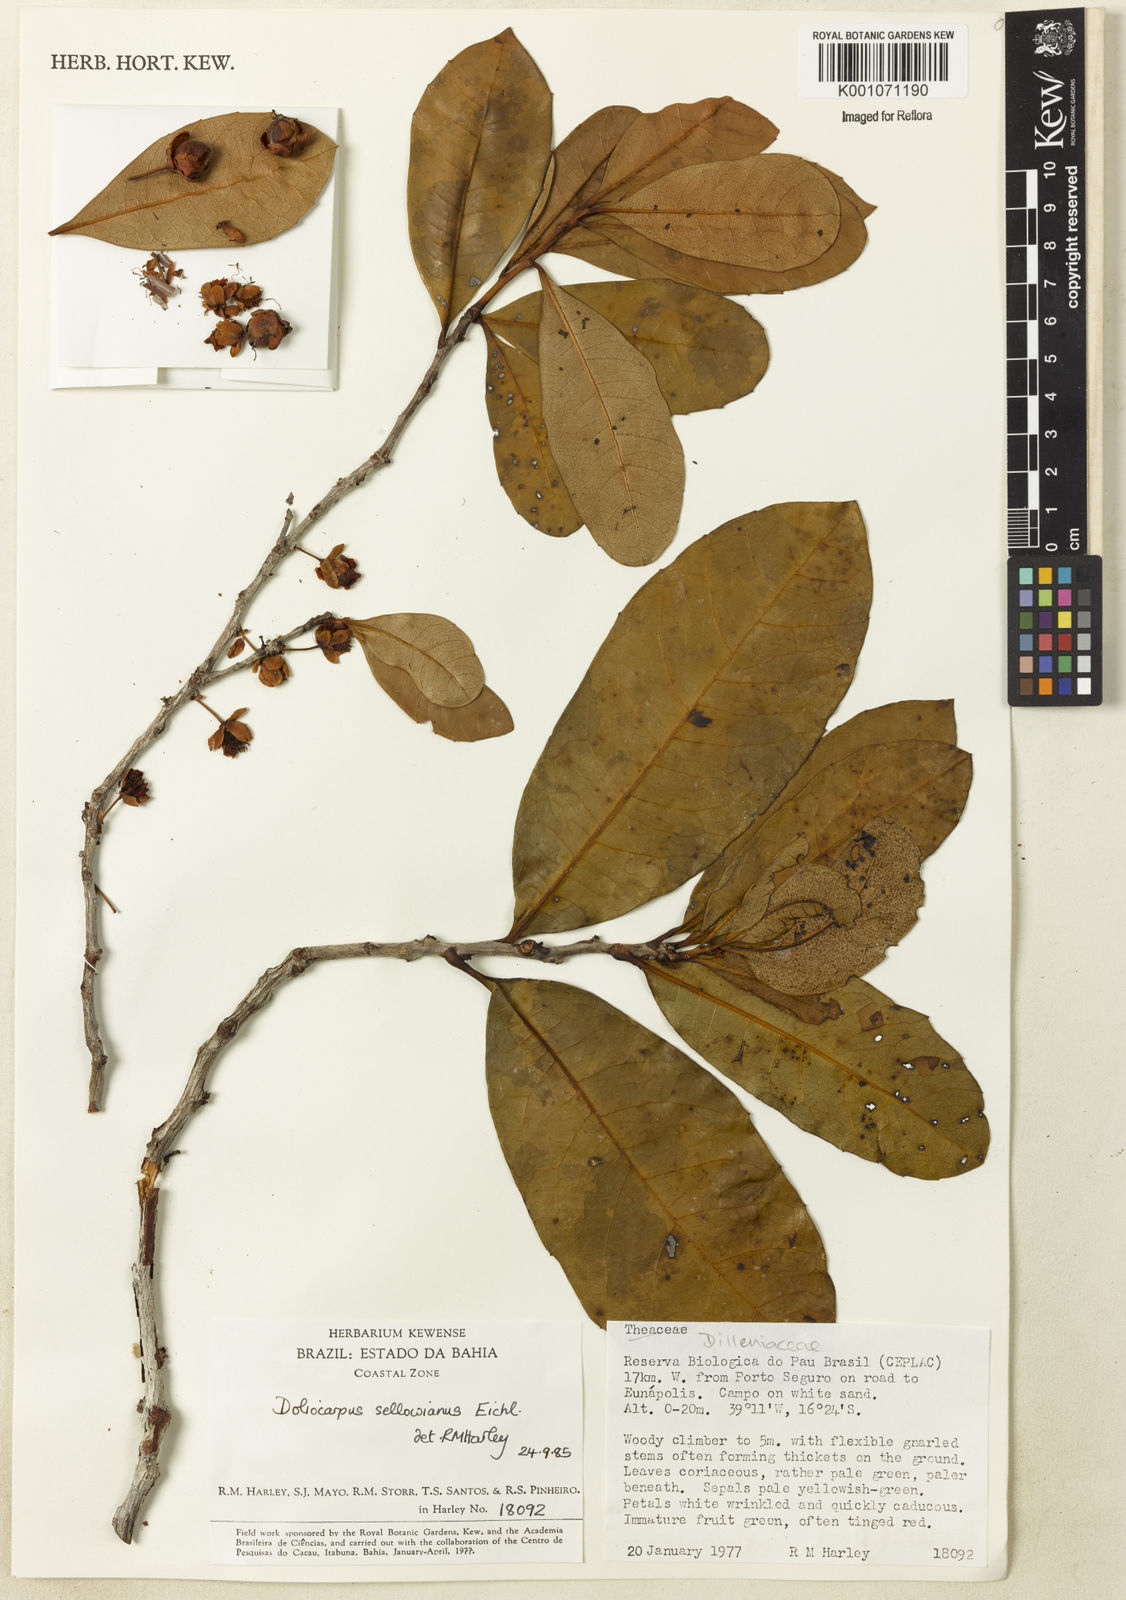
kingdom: Plantae
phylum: Tracheophyta
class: Magnoliopsida
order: Dilleniales
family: Dilleniaceae
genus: Doliocarpus
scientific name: Doliocarpus sellowianus
